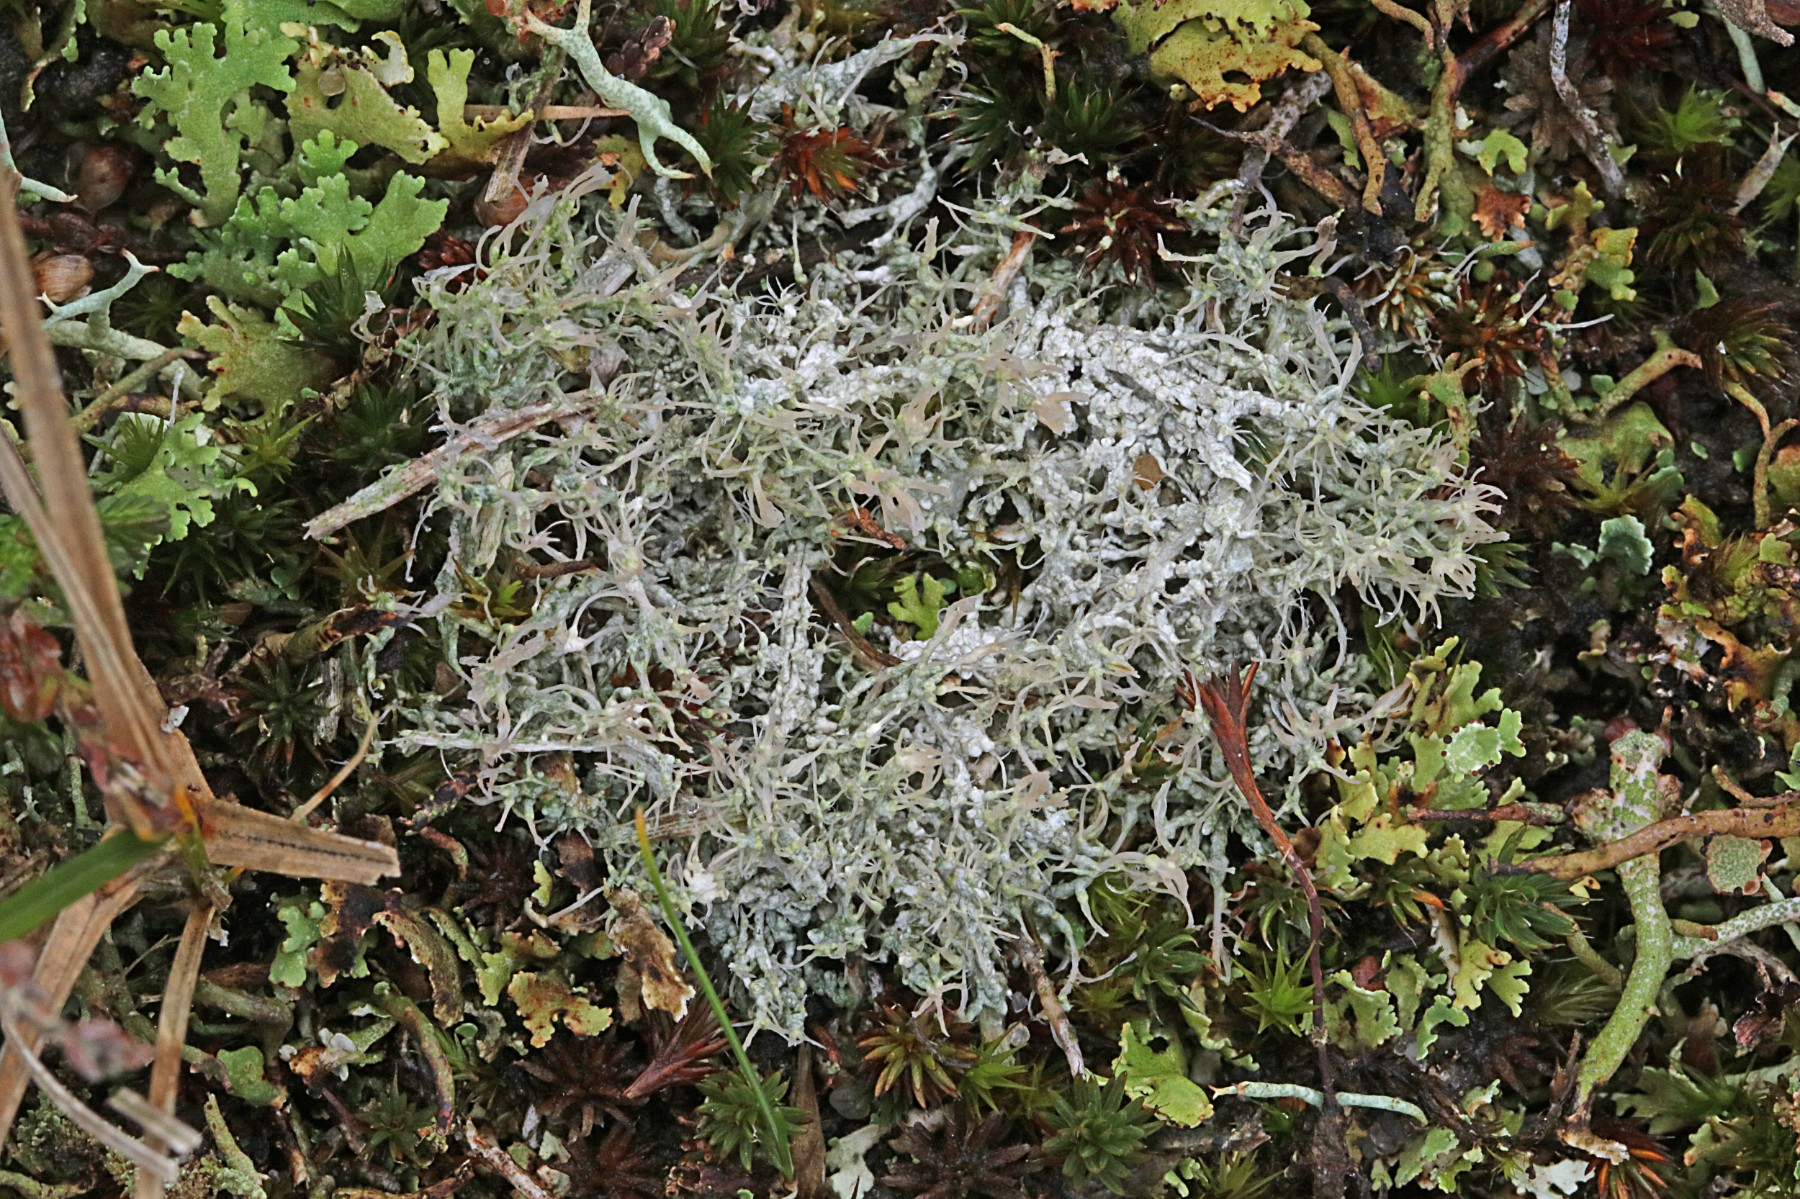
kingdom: Fungi
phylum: Ascomycota
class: Lecanoromycetes
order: Pertusariales
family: Ochrolechiaceae
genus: Ochrolechia
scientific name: Ochrolechia frigida
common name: fjeld-blegskivelav
